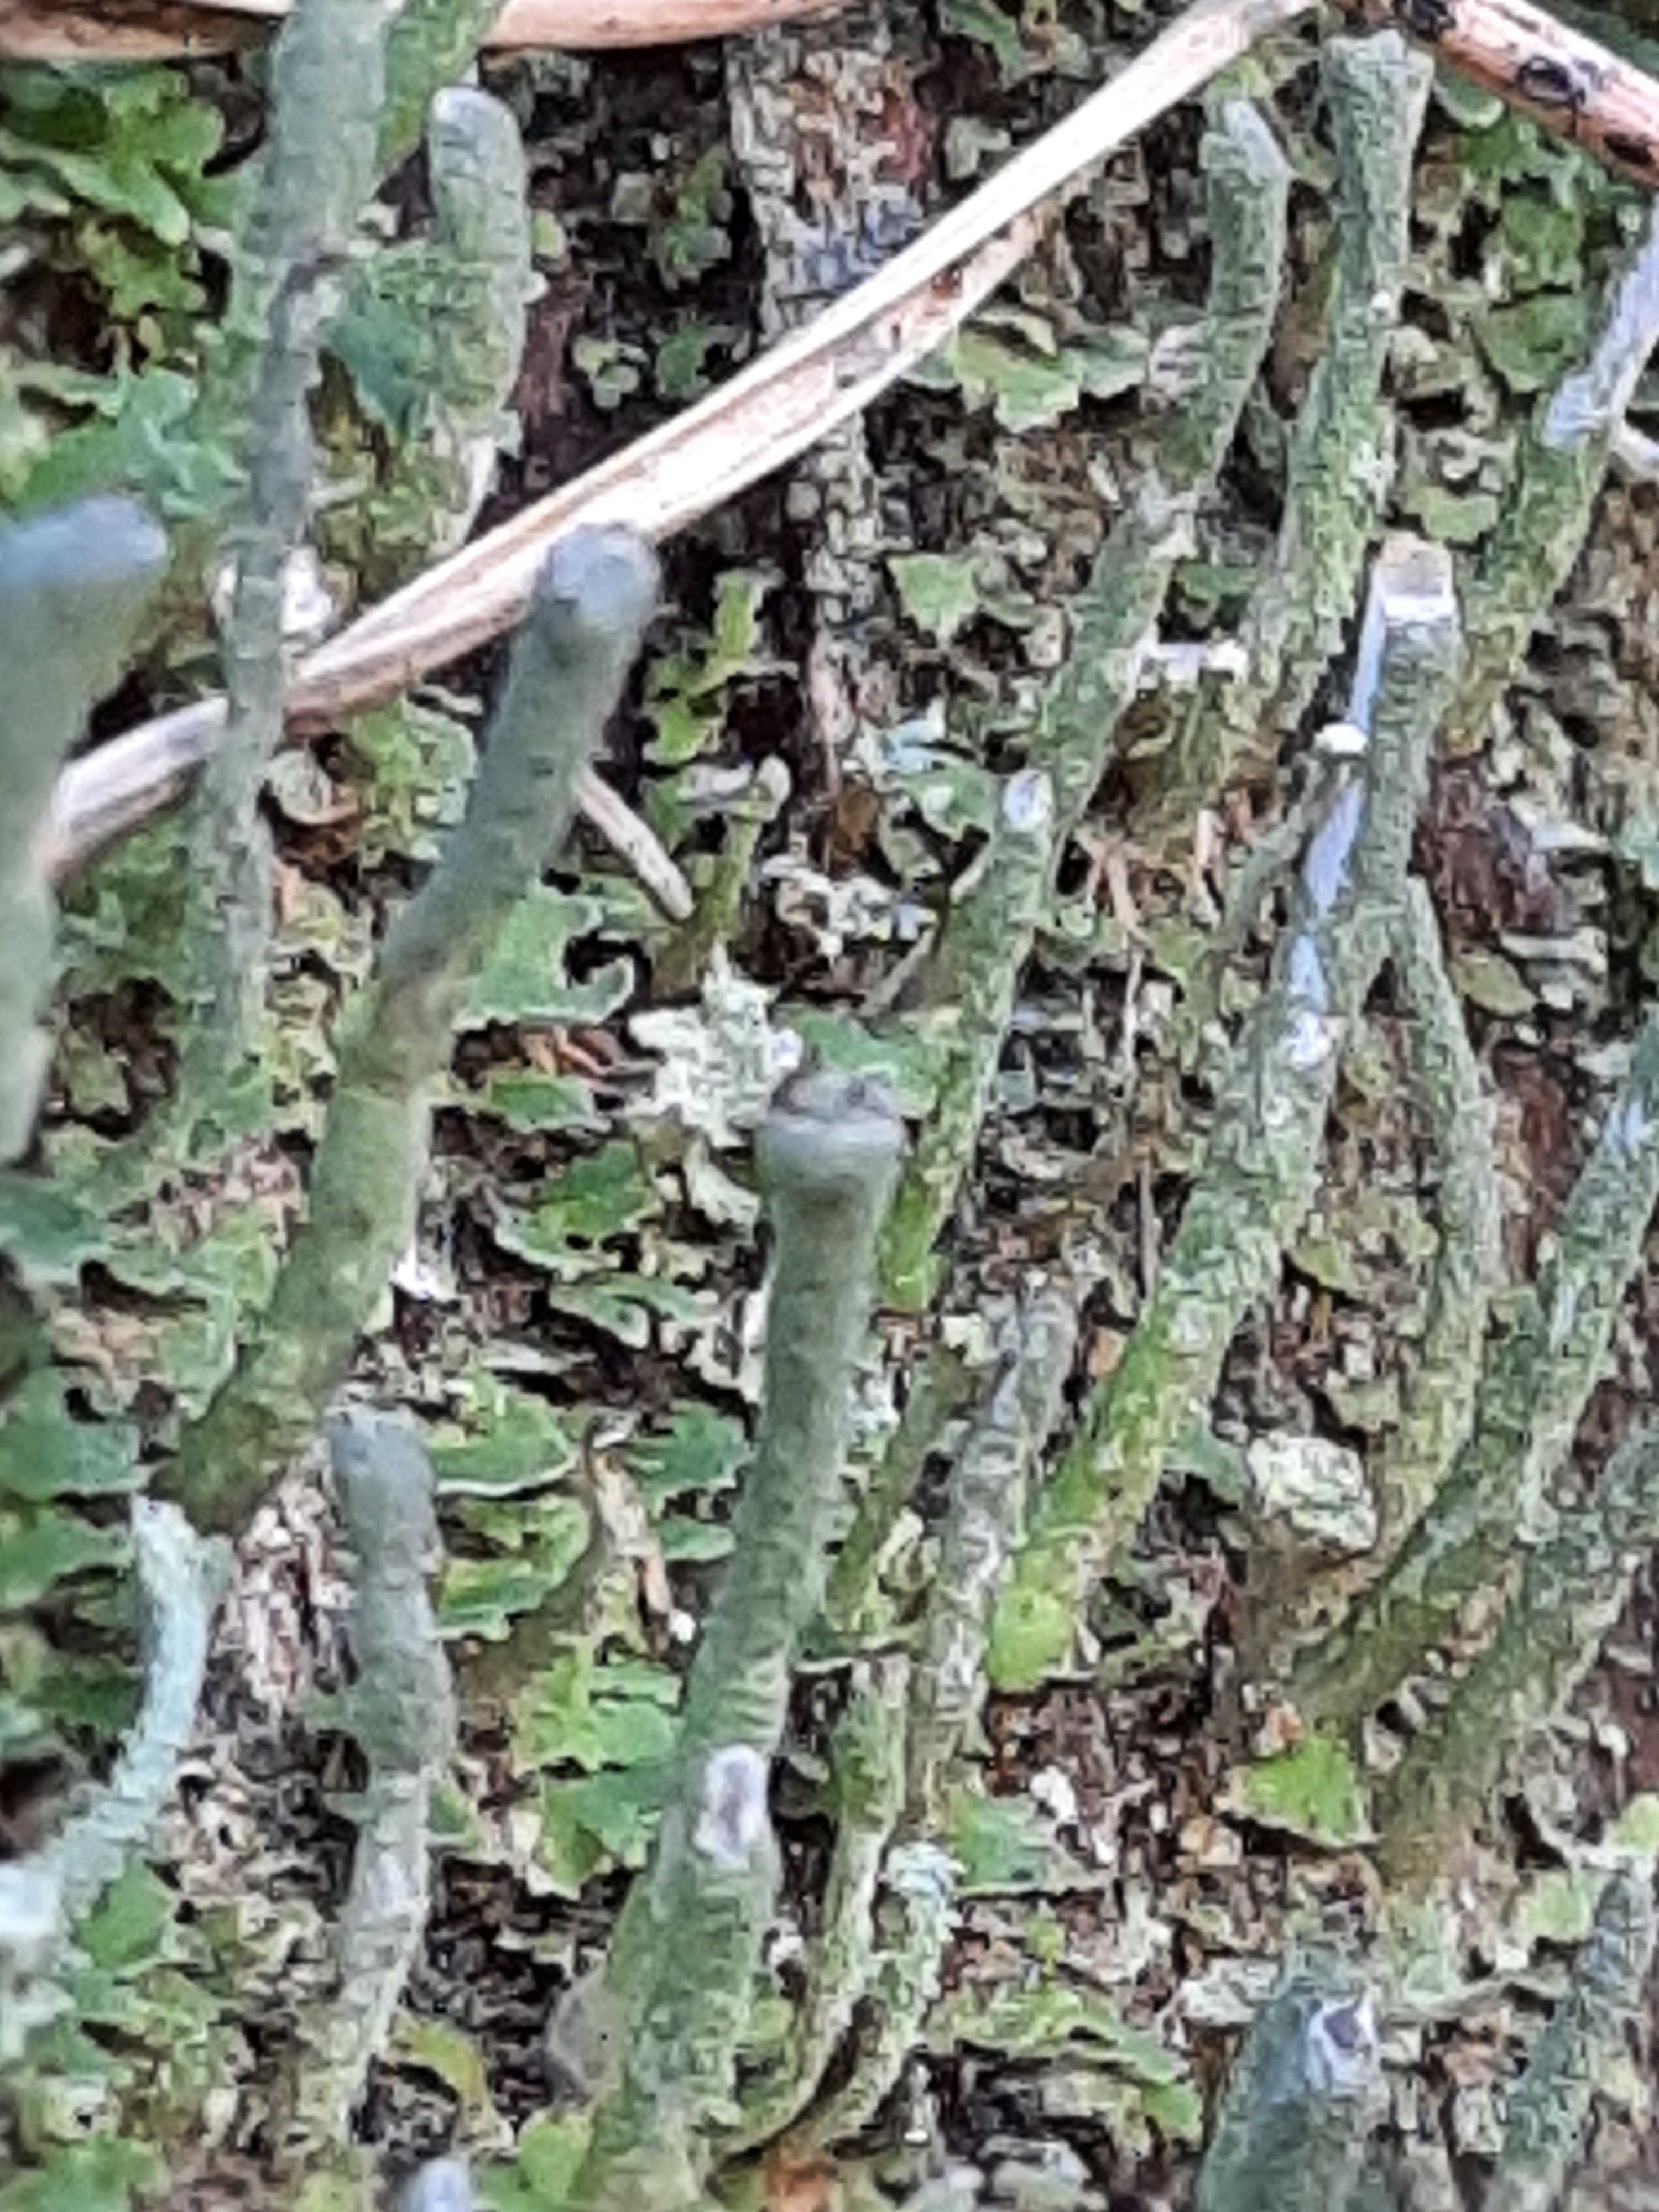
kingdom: Fungi
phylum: Ascomycota
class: Lecanoromycetes
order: Lecanorales
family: Cladoniaceae
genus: Cladonia
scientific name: Cladonia ochrochlora
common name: stød-bægerlav
